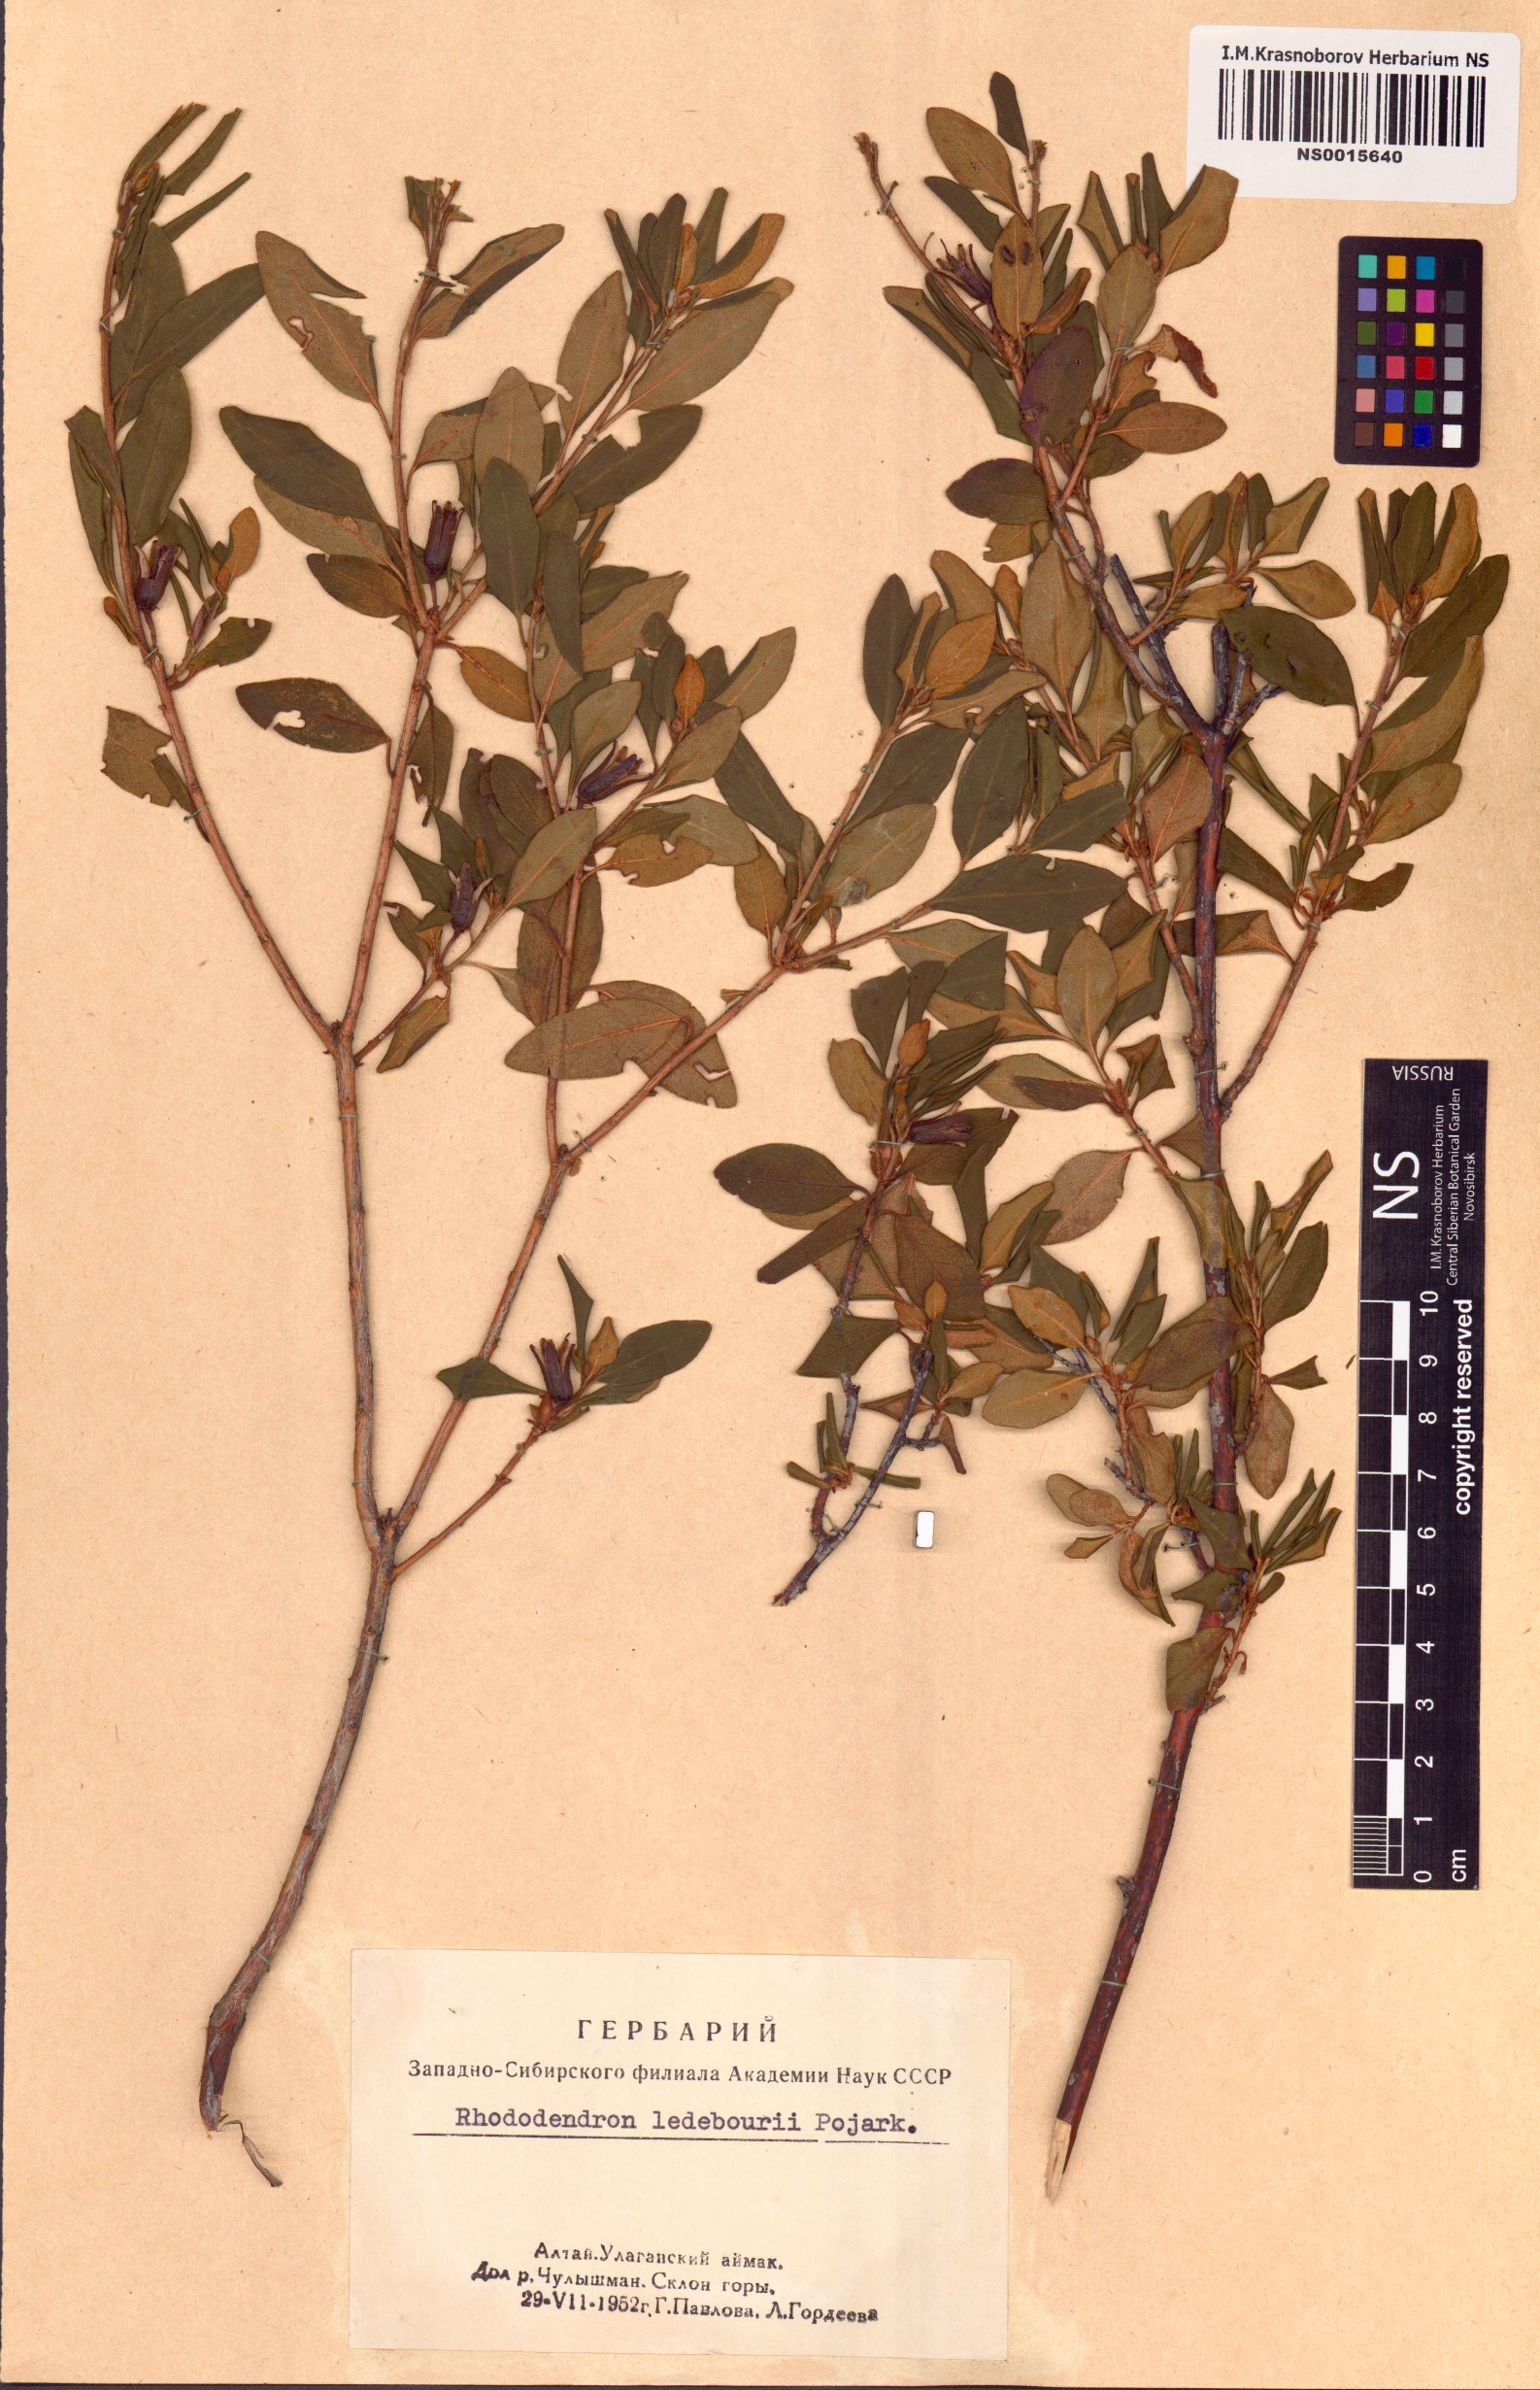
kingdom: Plantae
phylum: Tracheophyta
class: Magnoliopsida
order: Ericales
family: Ericaceae
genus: Rhododendron
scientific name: Rhododendron dauricum
